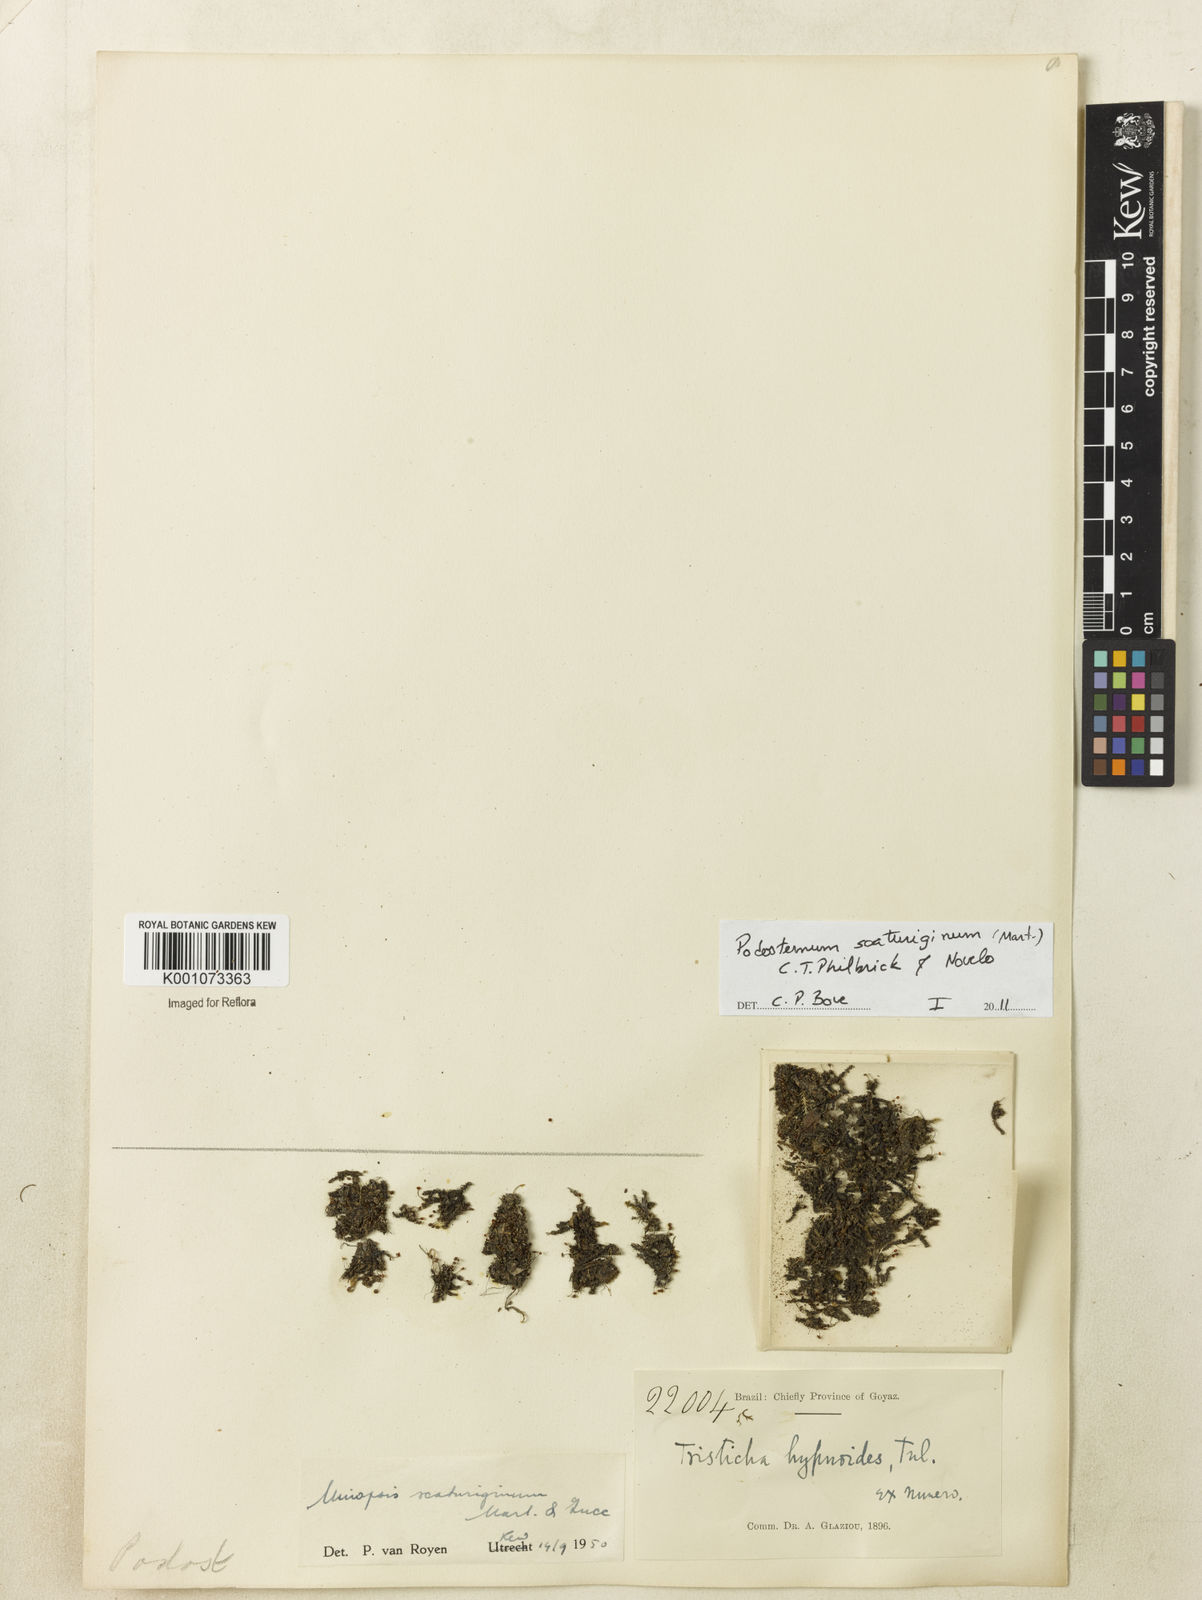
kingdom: Plantae
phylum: Tracheophyta
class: Magnoliopsida
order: Malpighiales
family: Podostemaceae
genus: Podostemum
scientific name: Podostemum scaturiginum
